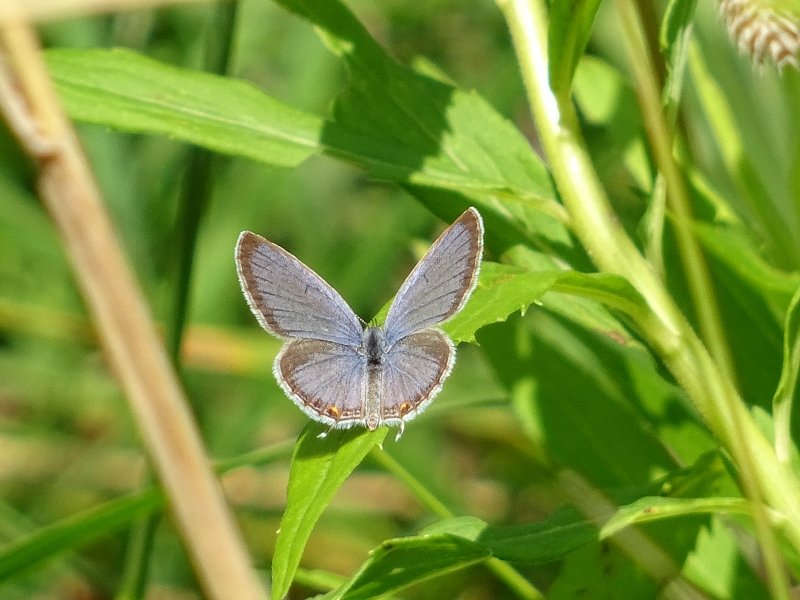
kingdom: Animalia
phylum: Arthropoda
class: Insecta
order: Lepidoptera
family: Lycaenidae
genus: Elkalyce
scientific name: Elkalyce comyntas
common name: Eastern Tailed-Blue
